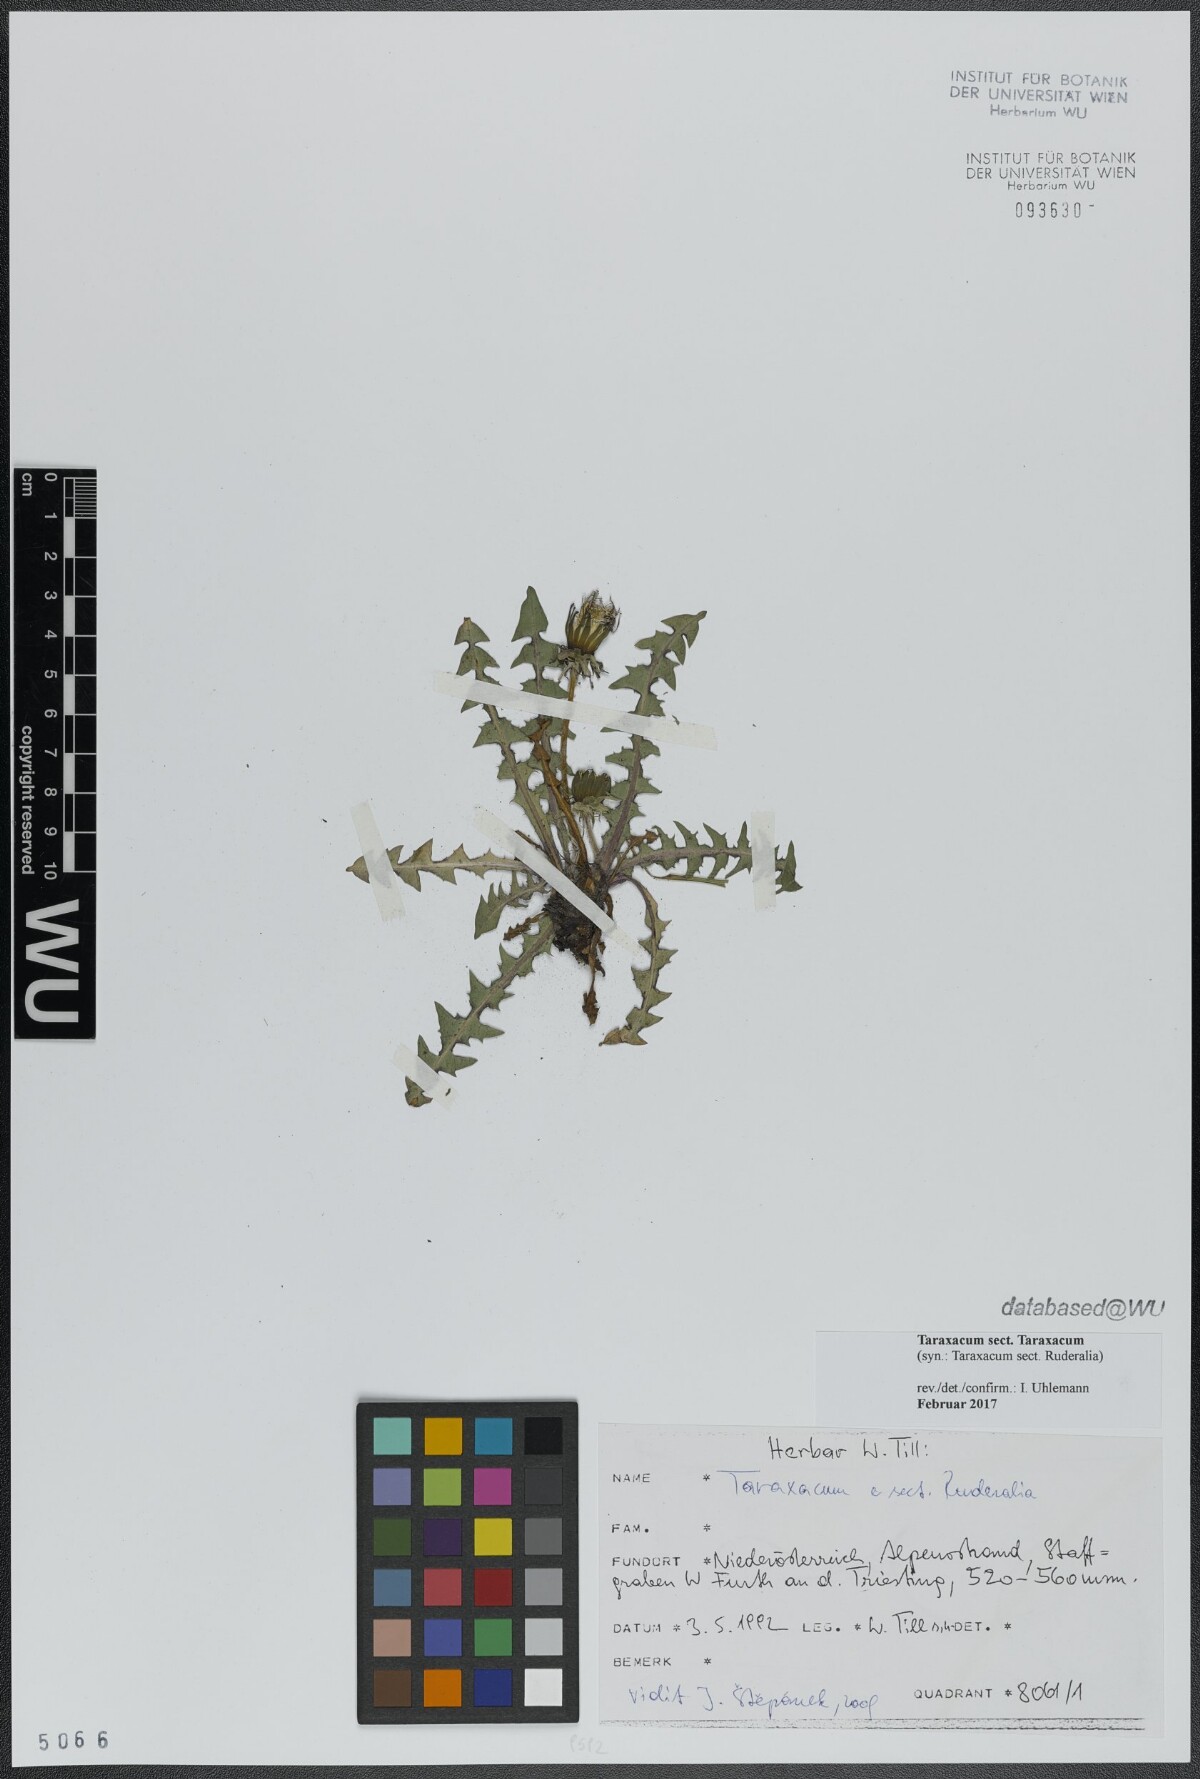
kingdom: Plantae
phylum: Tracheophyta
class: Magnoliopsida
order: Asterales
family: Asteraceae
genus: Taraxacum
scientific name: Taraxacum
